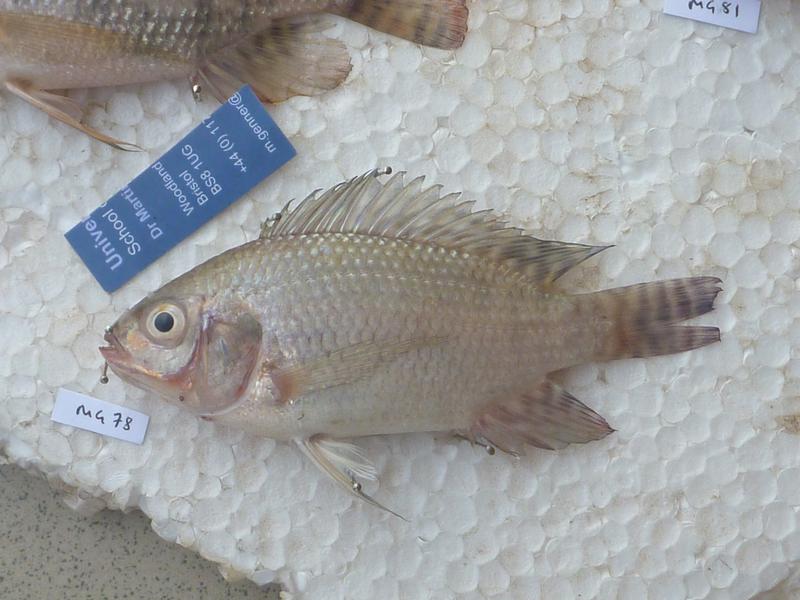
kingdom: Animalia
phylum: Chordata
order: Perciformes
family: Cichlidae
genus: Oreochromis
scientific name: Oreochromis niloticus
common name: Nile tilapia
